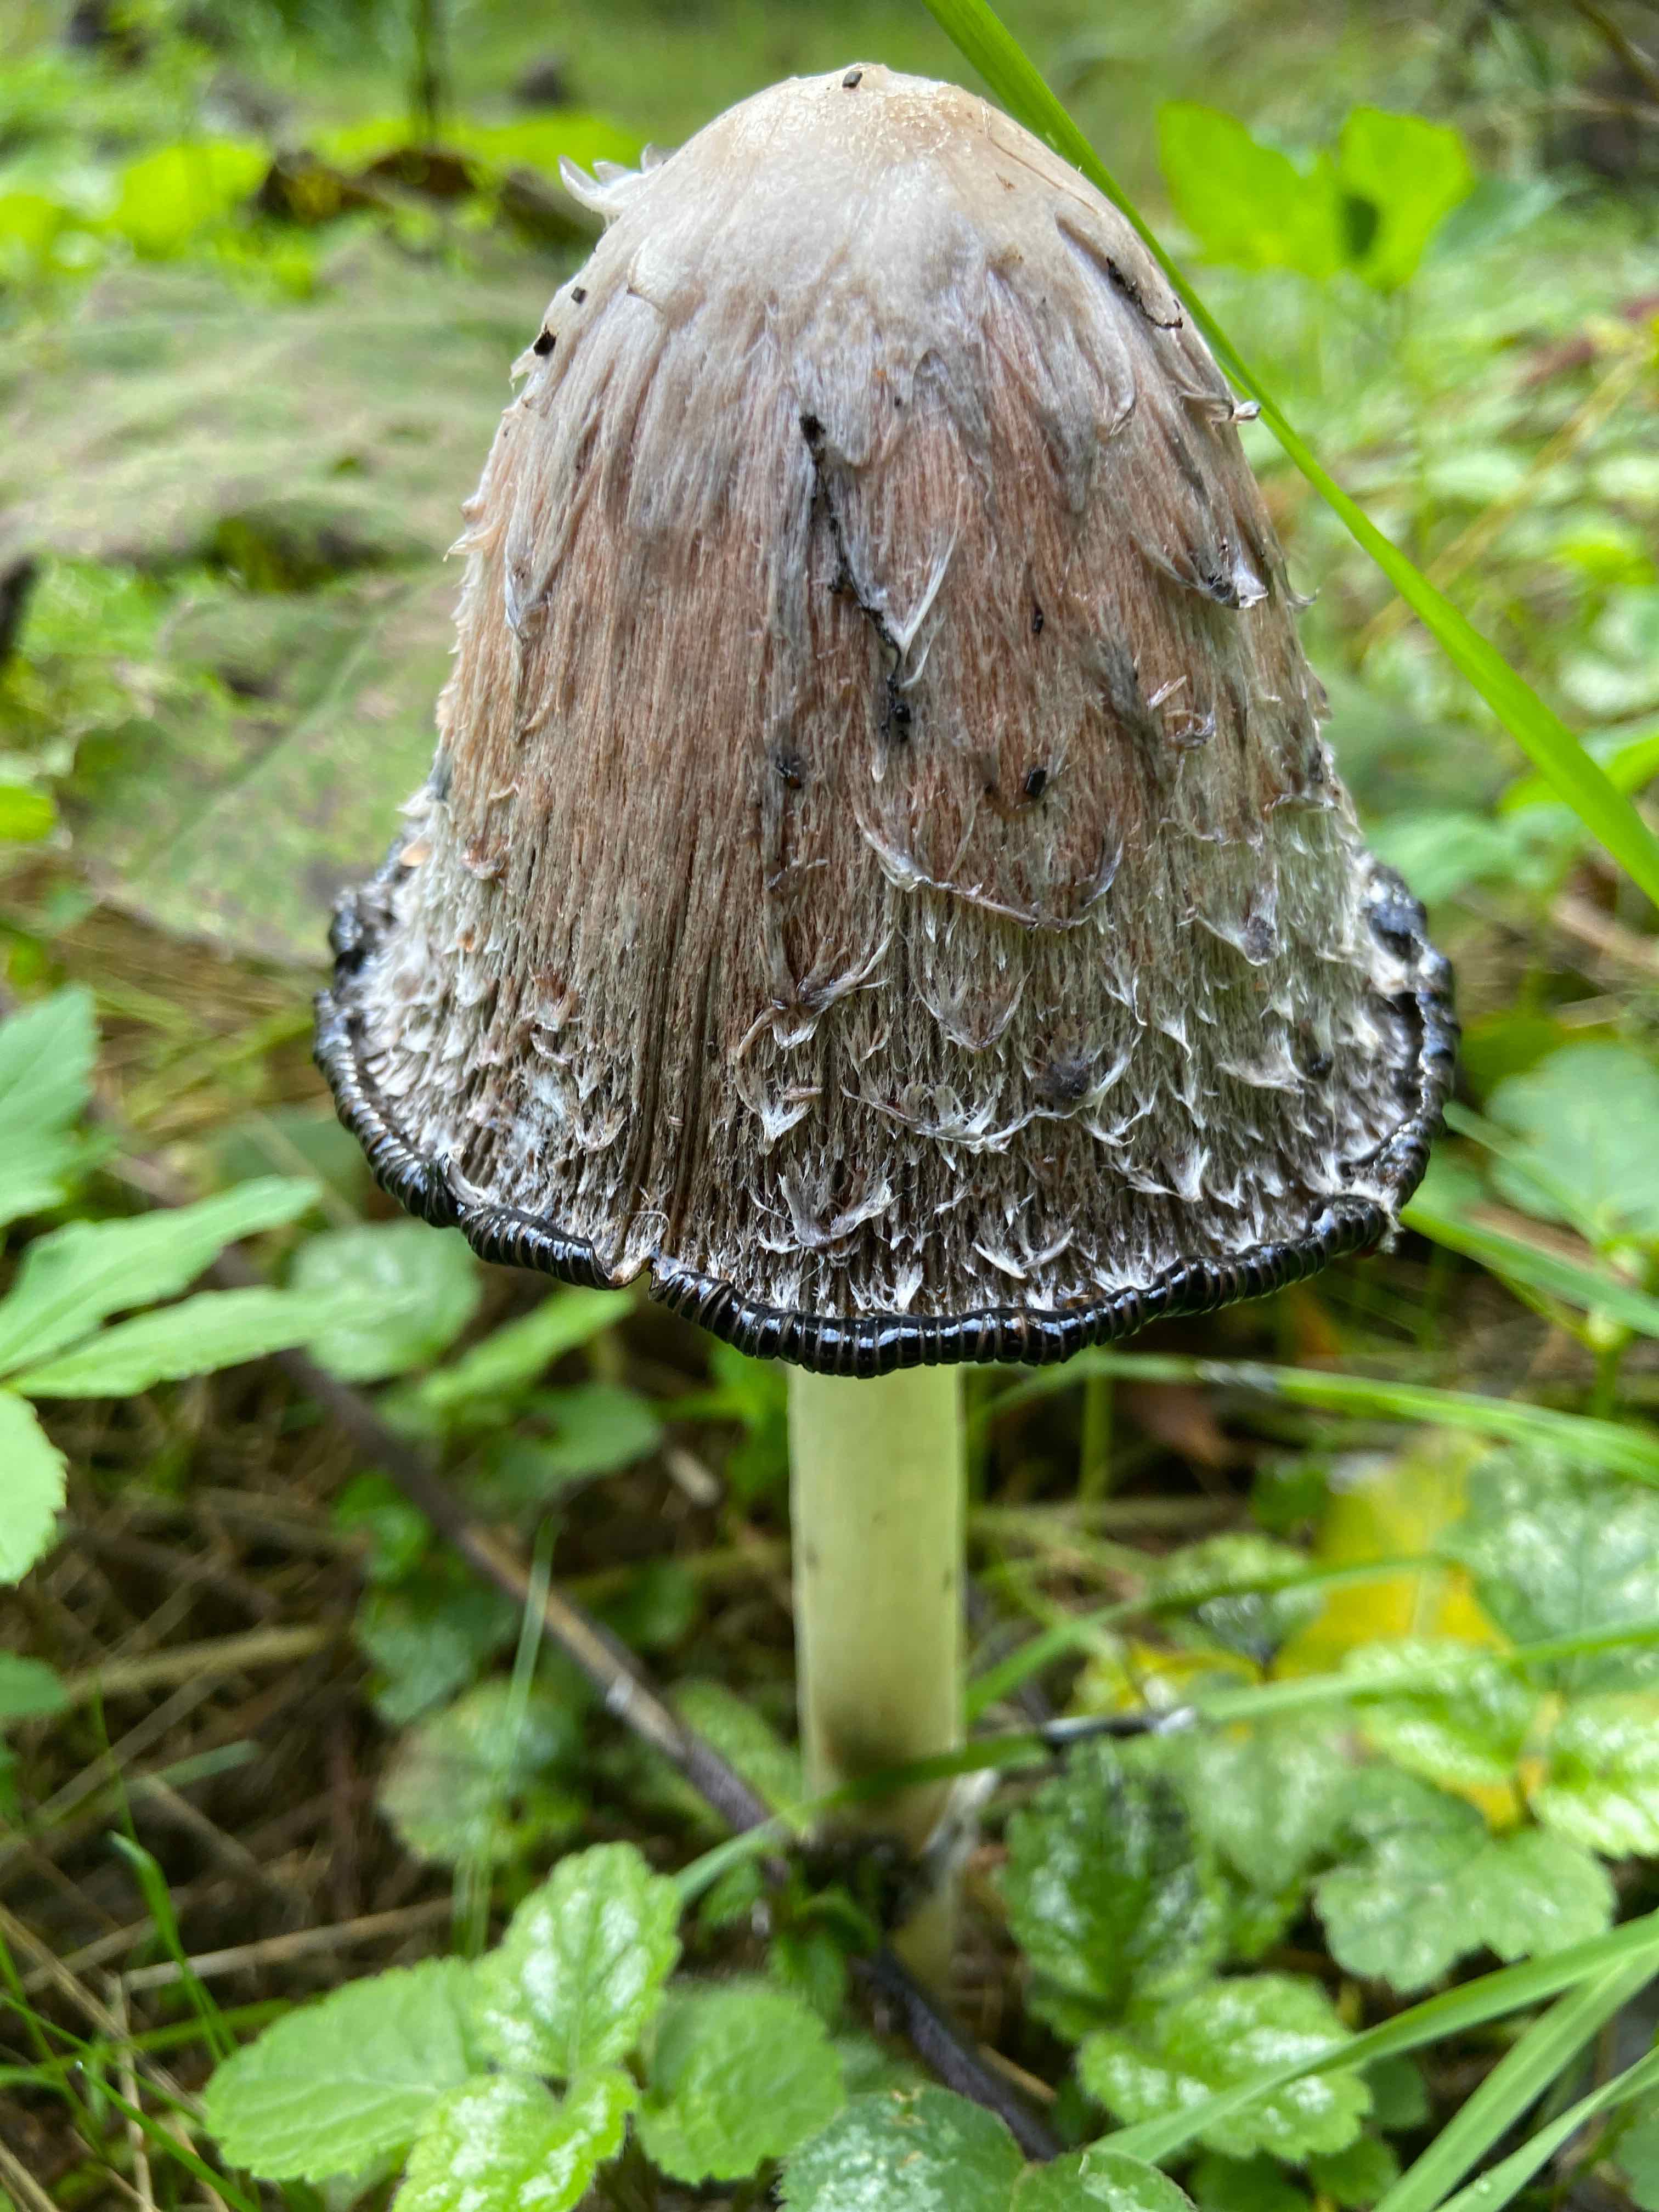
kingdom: Fungi
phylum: Basidiomycota
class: Agaricomycetes
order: Agaricales
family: Agaricaceae
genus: Coprinus
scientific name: Coprinus comatus
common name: stor parykhat
